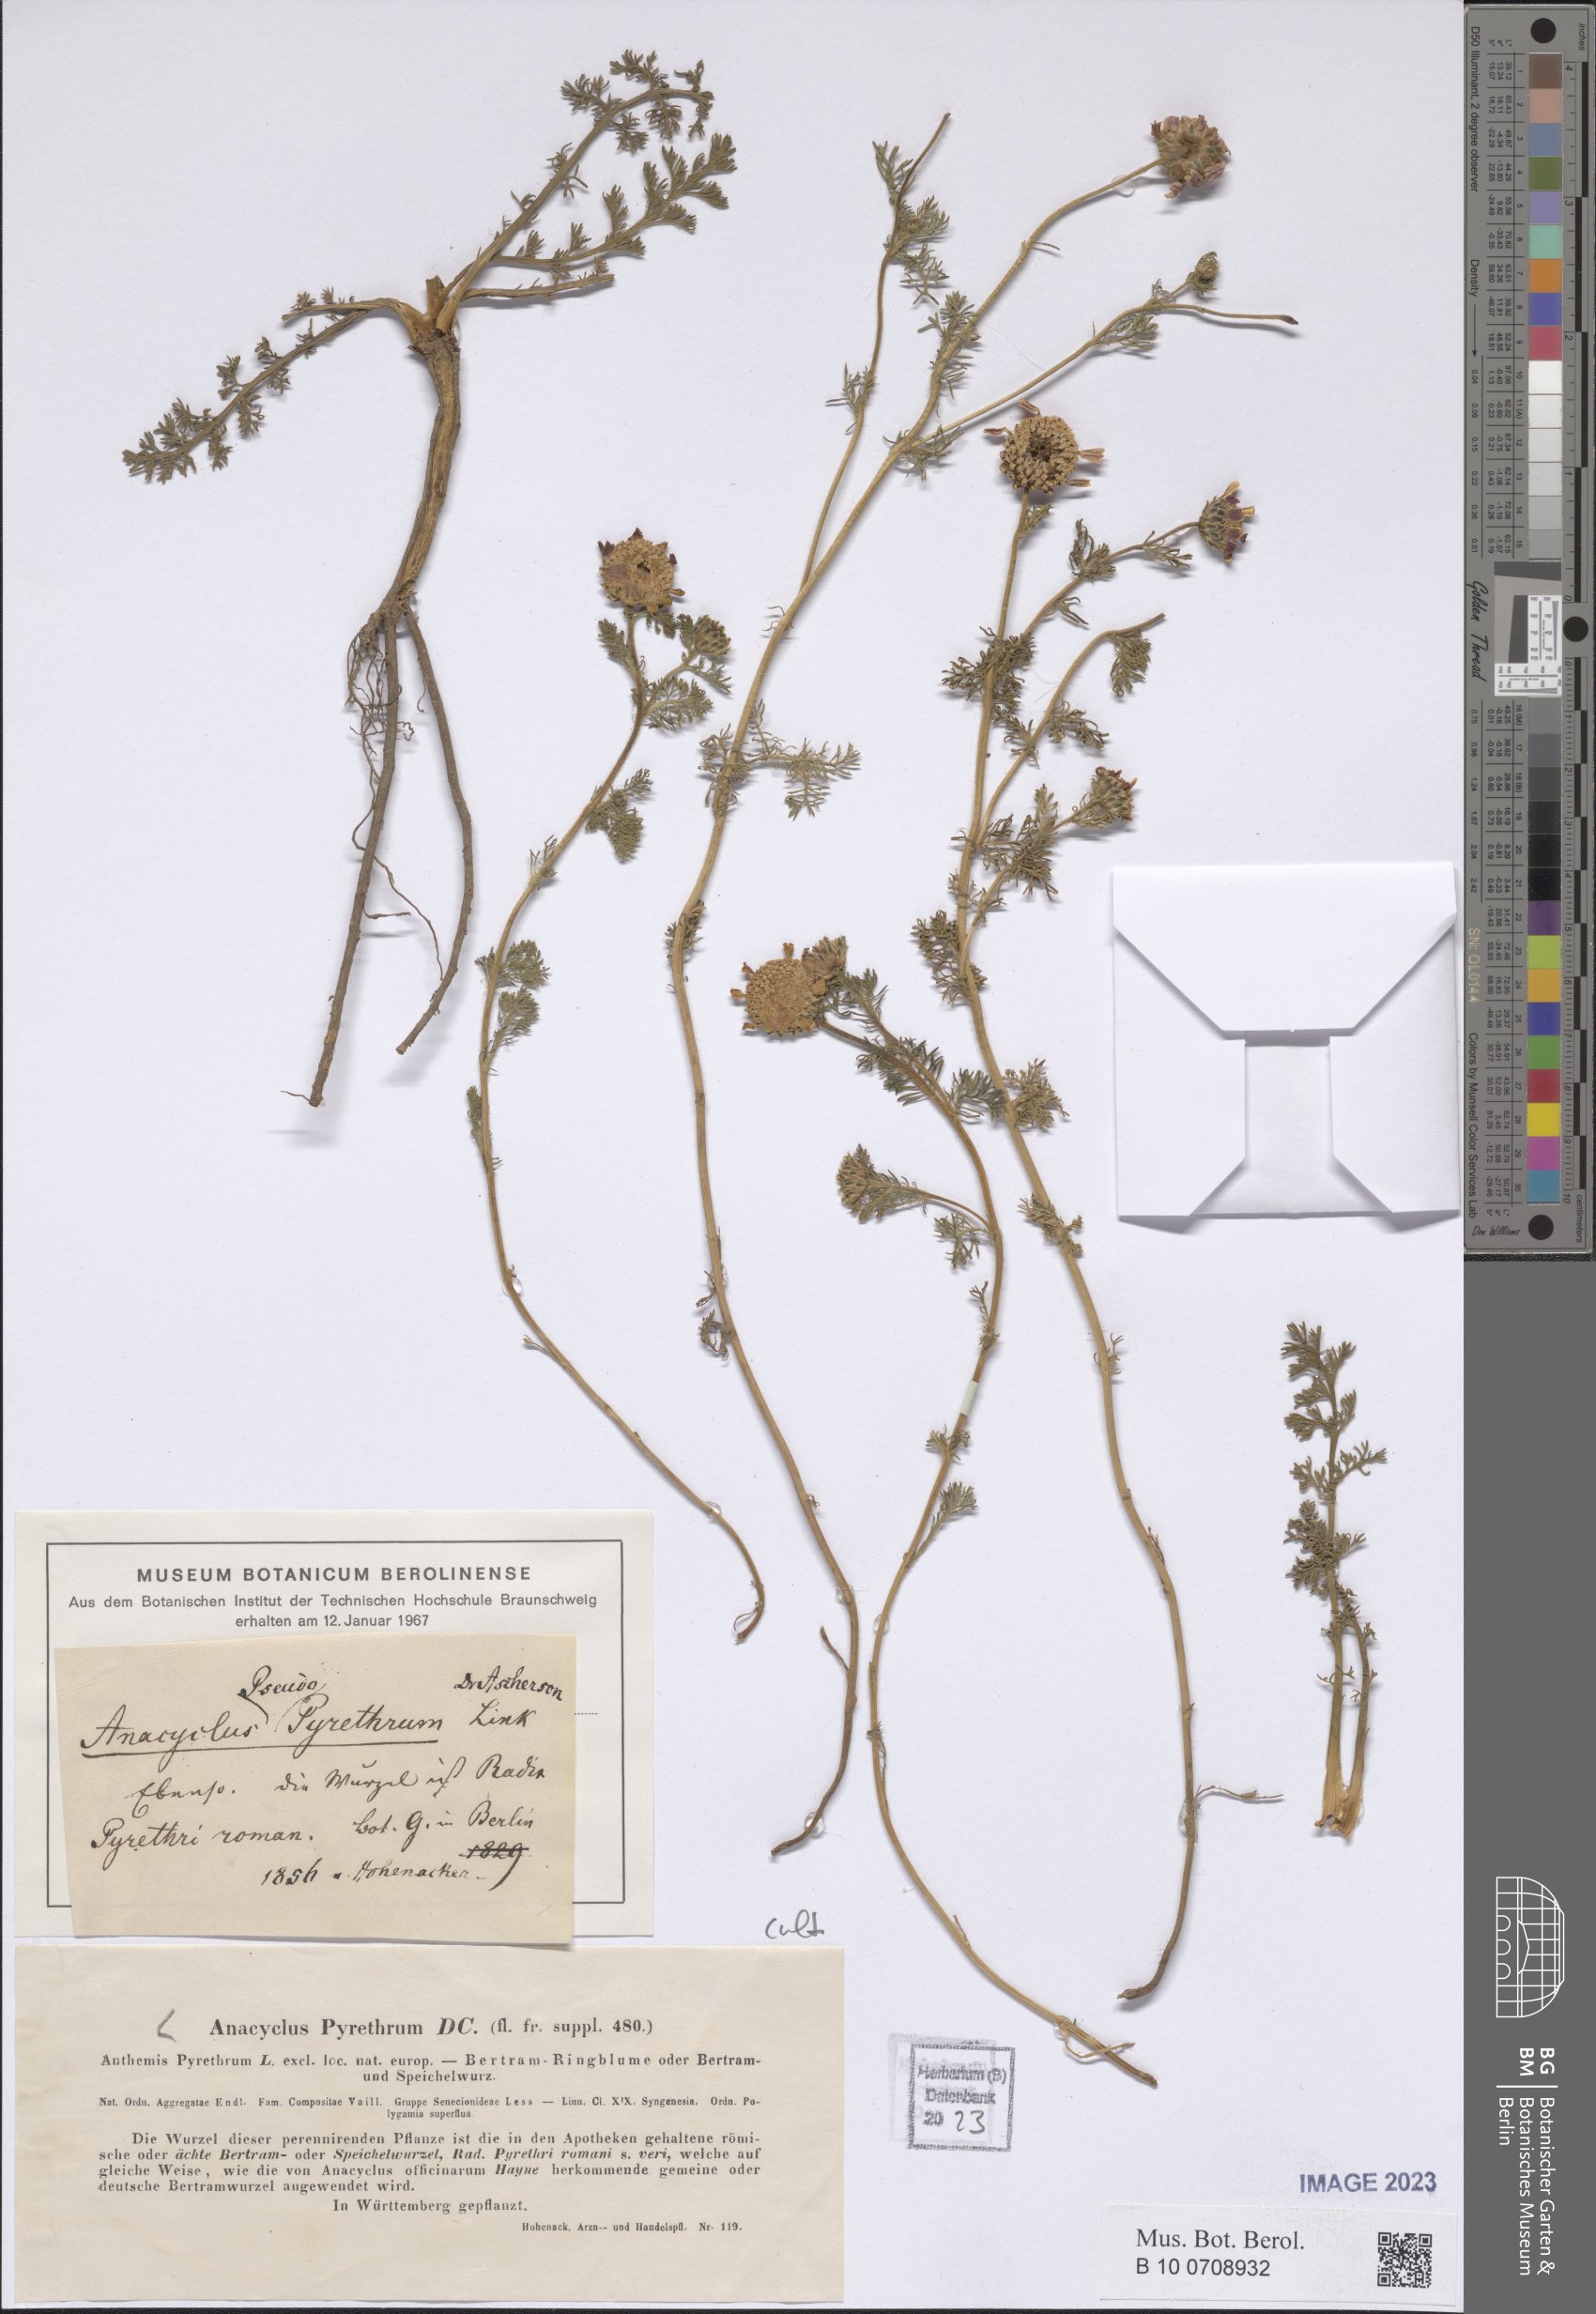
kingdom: Plantae
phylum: Tracheophyta
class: Magnoliopsida
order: Asterales
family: Asteraceae
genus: Anacyclus
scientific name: Anacyclus pyrethrum
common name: Mt. atlas daisy
